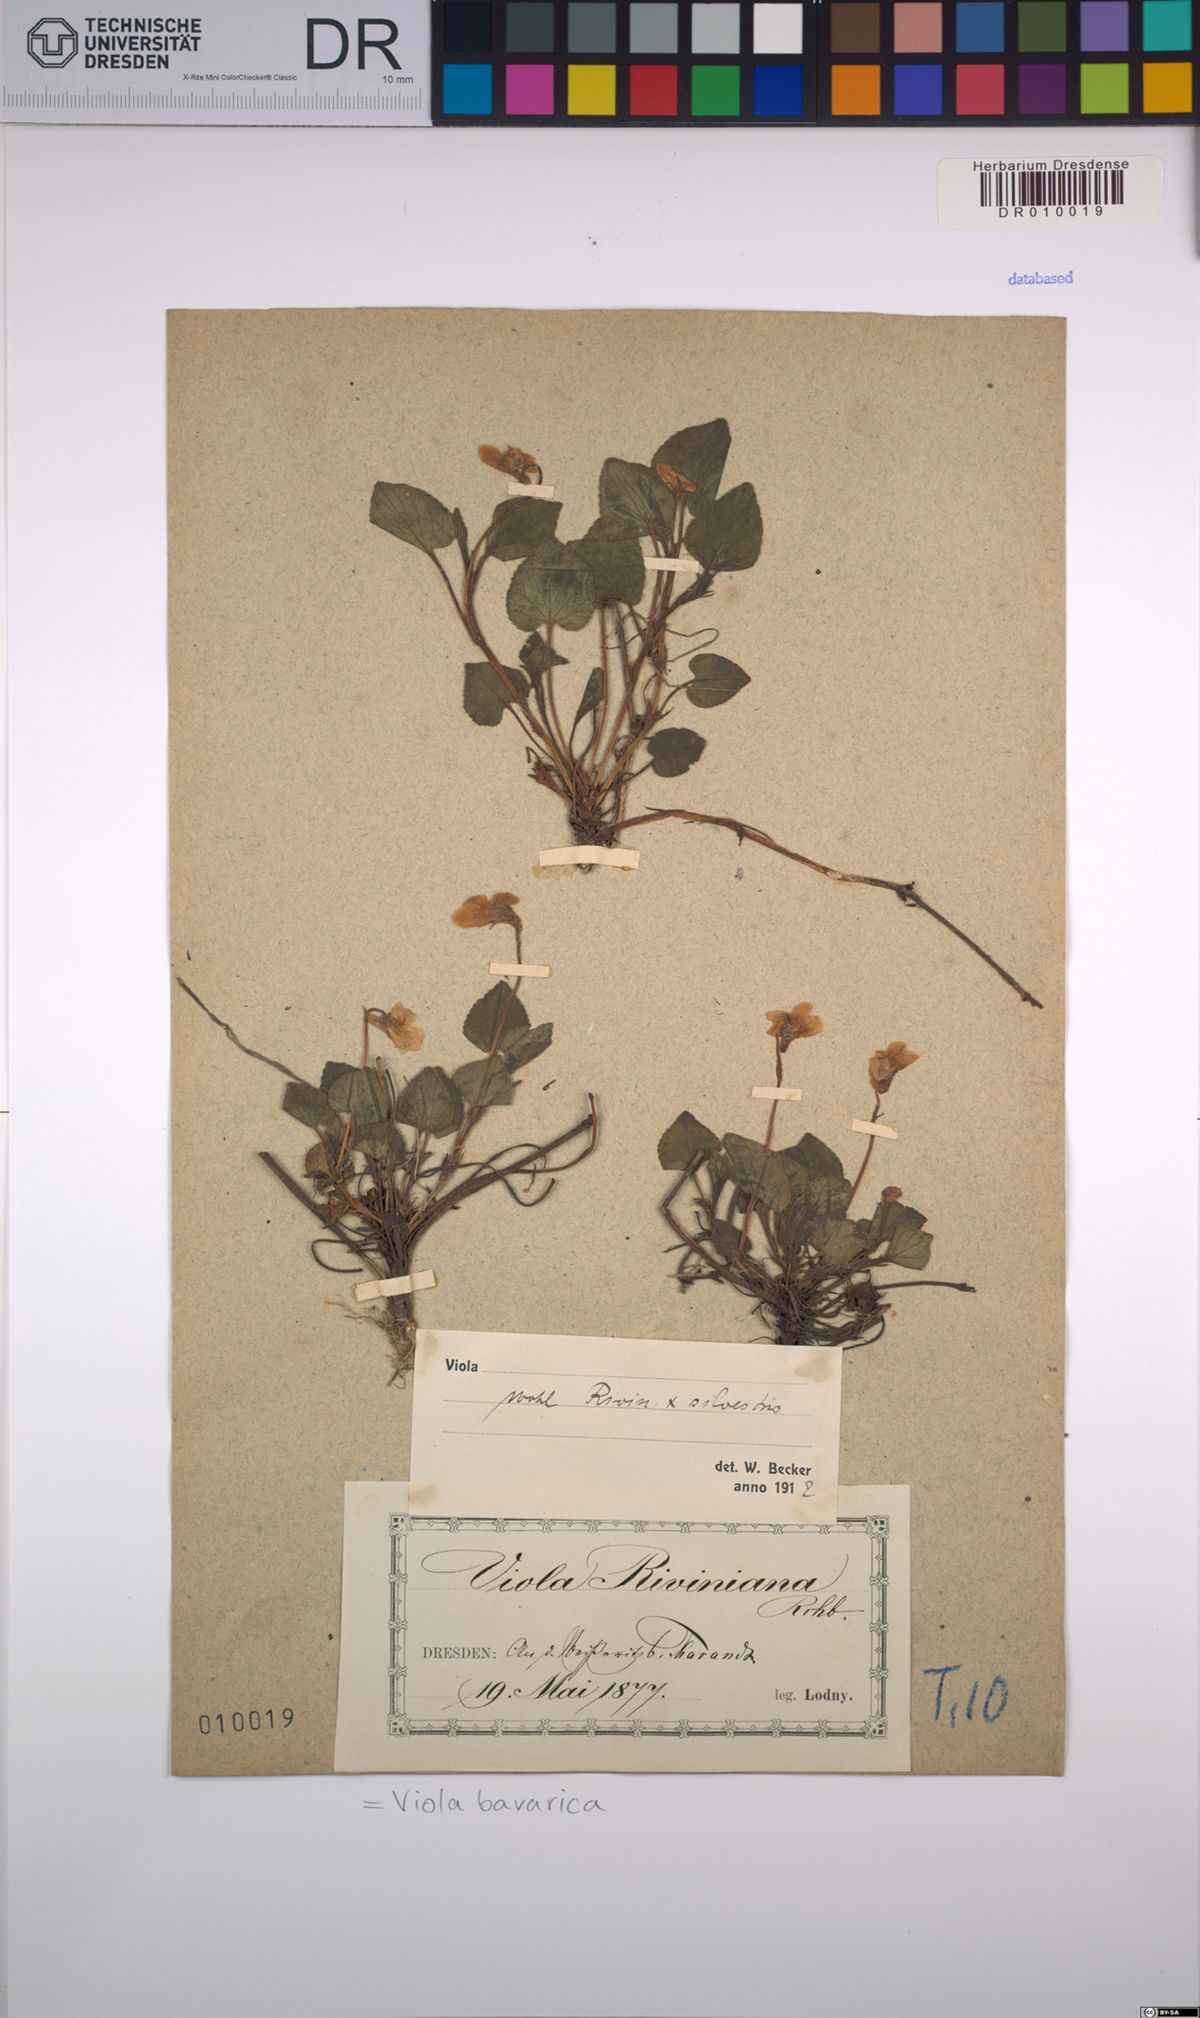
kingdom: Plantae
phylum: Tracheophyta
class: Magnoliopsida
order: Malpighiales
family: Violaceae
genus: Viola
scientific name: Viola bavarica
